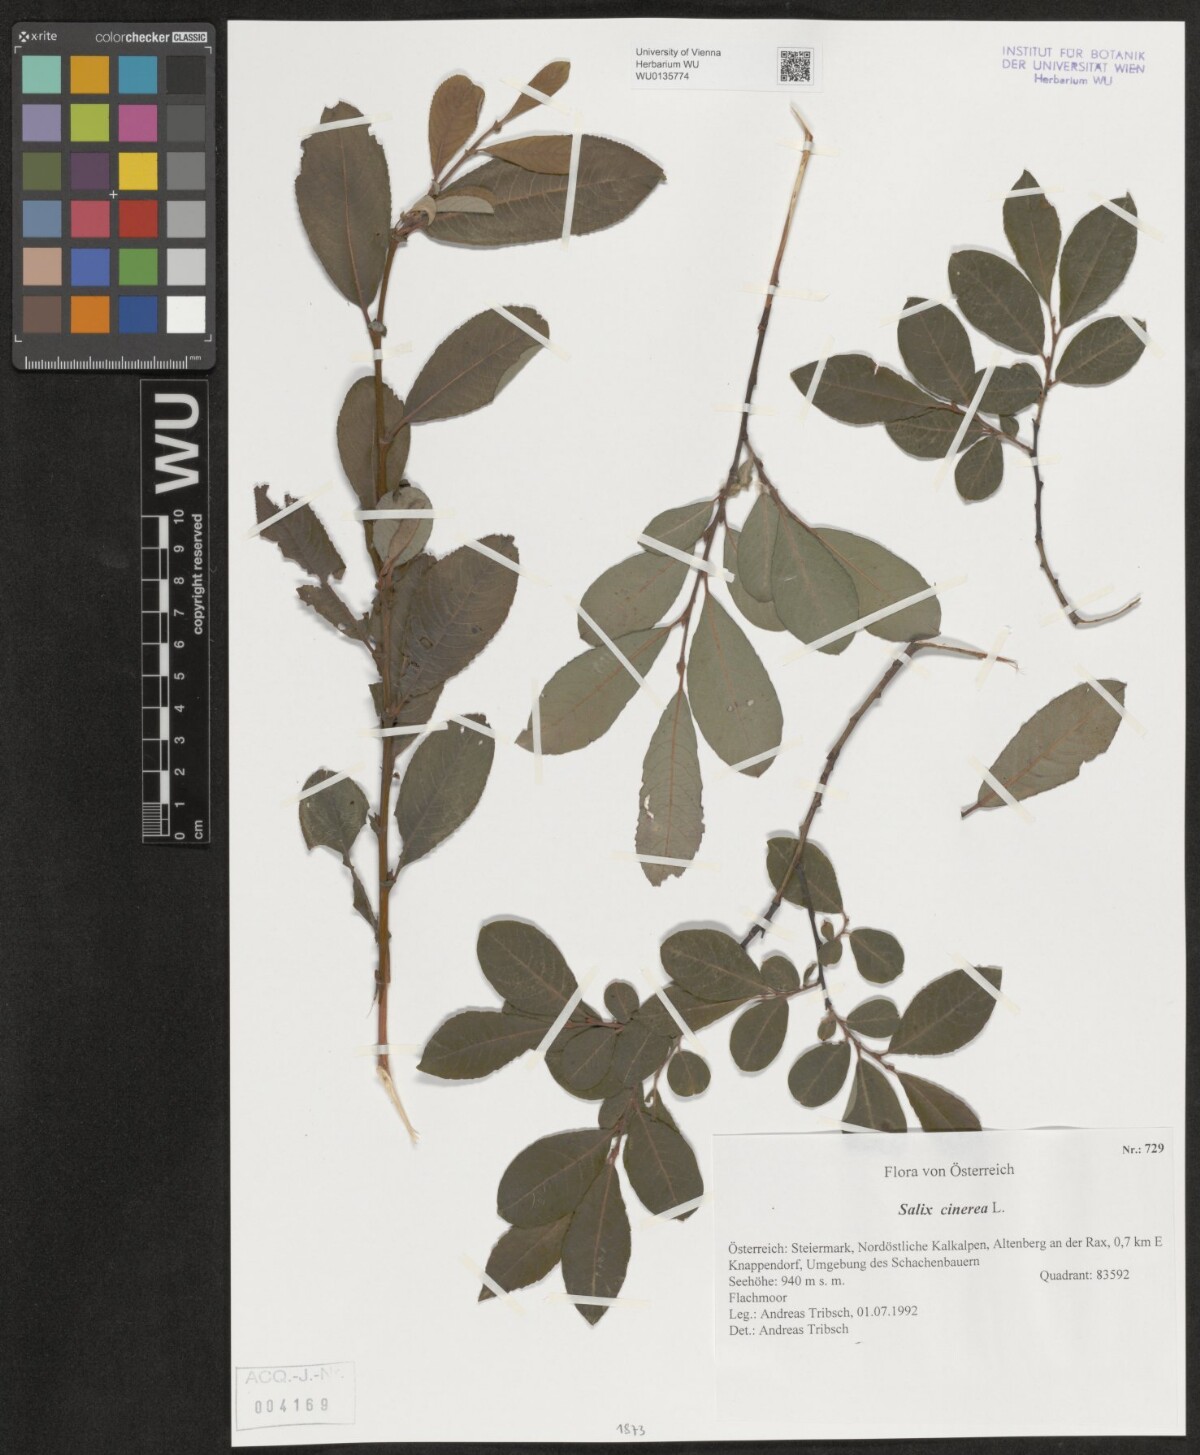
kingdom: Plantae
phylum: Tracheophyta
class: Magnoliopsida
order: Malpighiales
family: Salicaceae
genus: Salix
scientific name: Salix cinerea
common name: Common sallow
